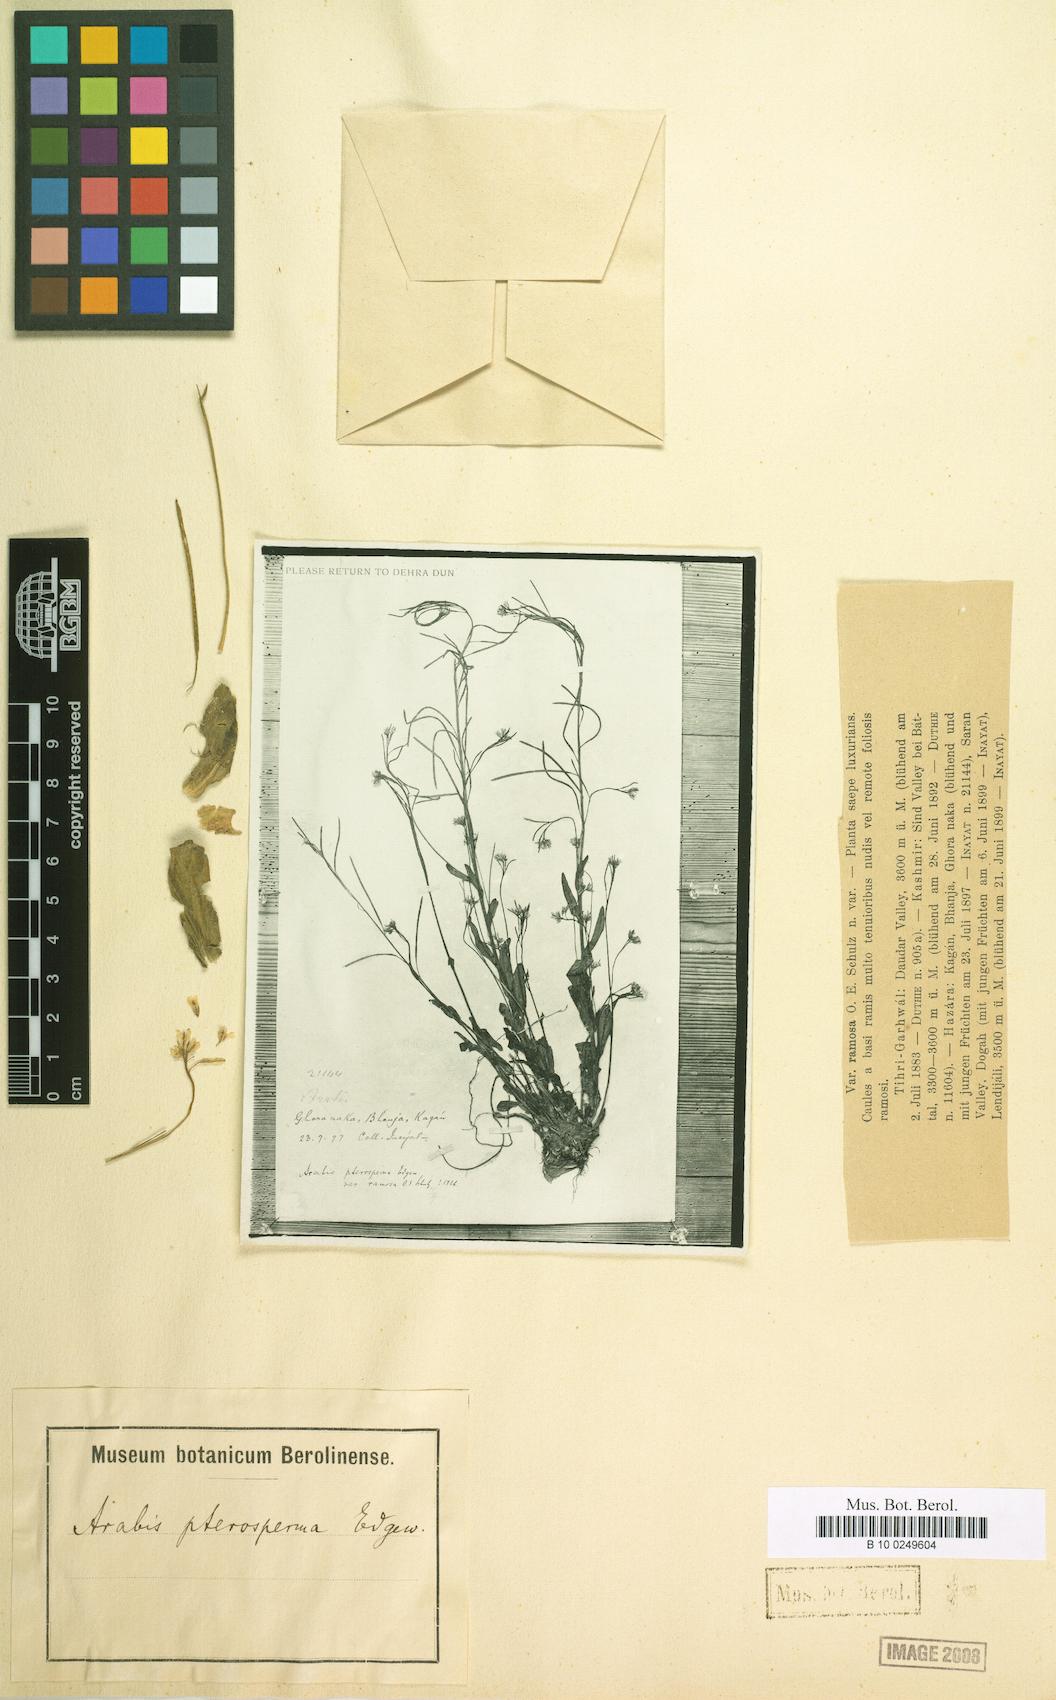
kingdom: Plantae
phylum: Tracheophyta
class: Magnoliopsida
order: Brassicales
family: Brassicaceae
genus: Arabis
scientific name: Arabis pterosperma
